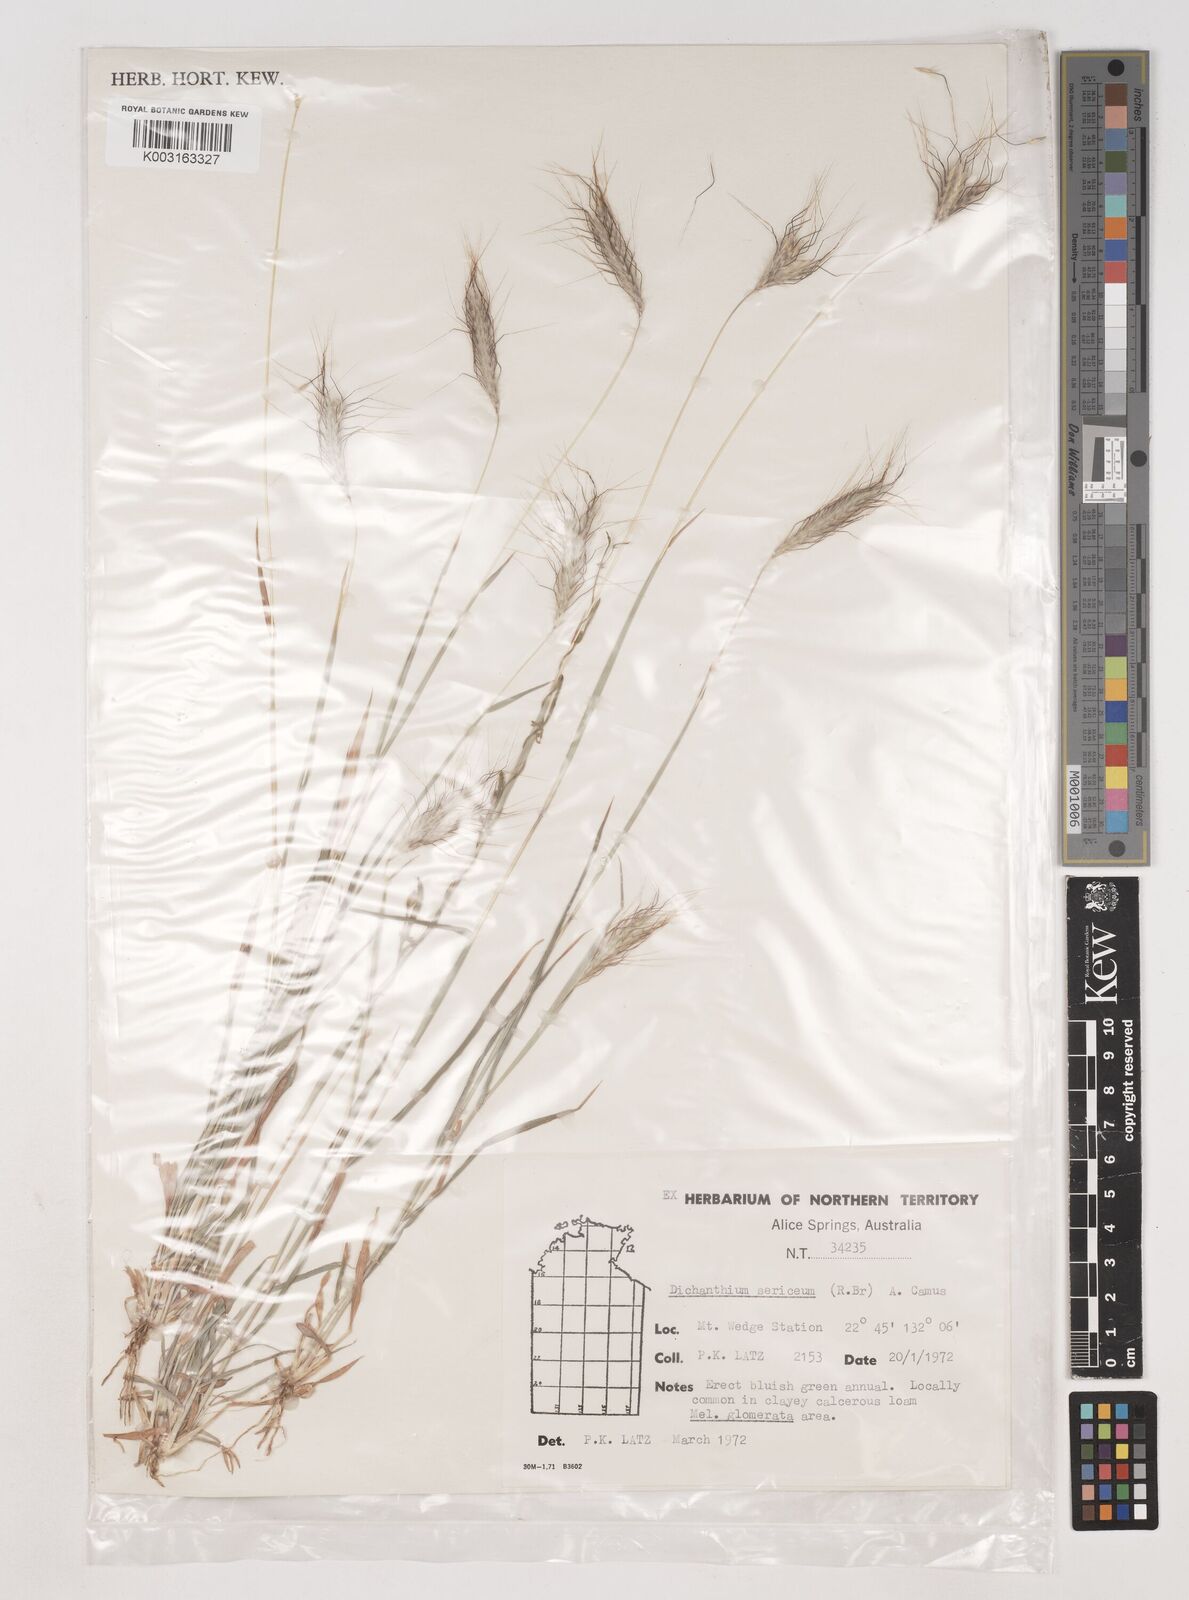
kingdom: Plantae
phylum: Tracheophyta
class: Liliopsida
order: Poales
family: Poaceae
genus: Dichanthium
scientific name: Dichanthium sericeum
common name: Silky bluestem
